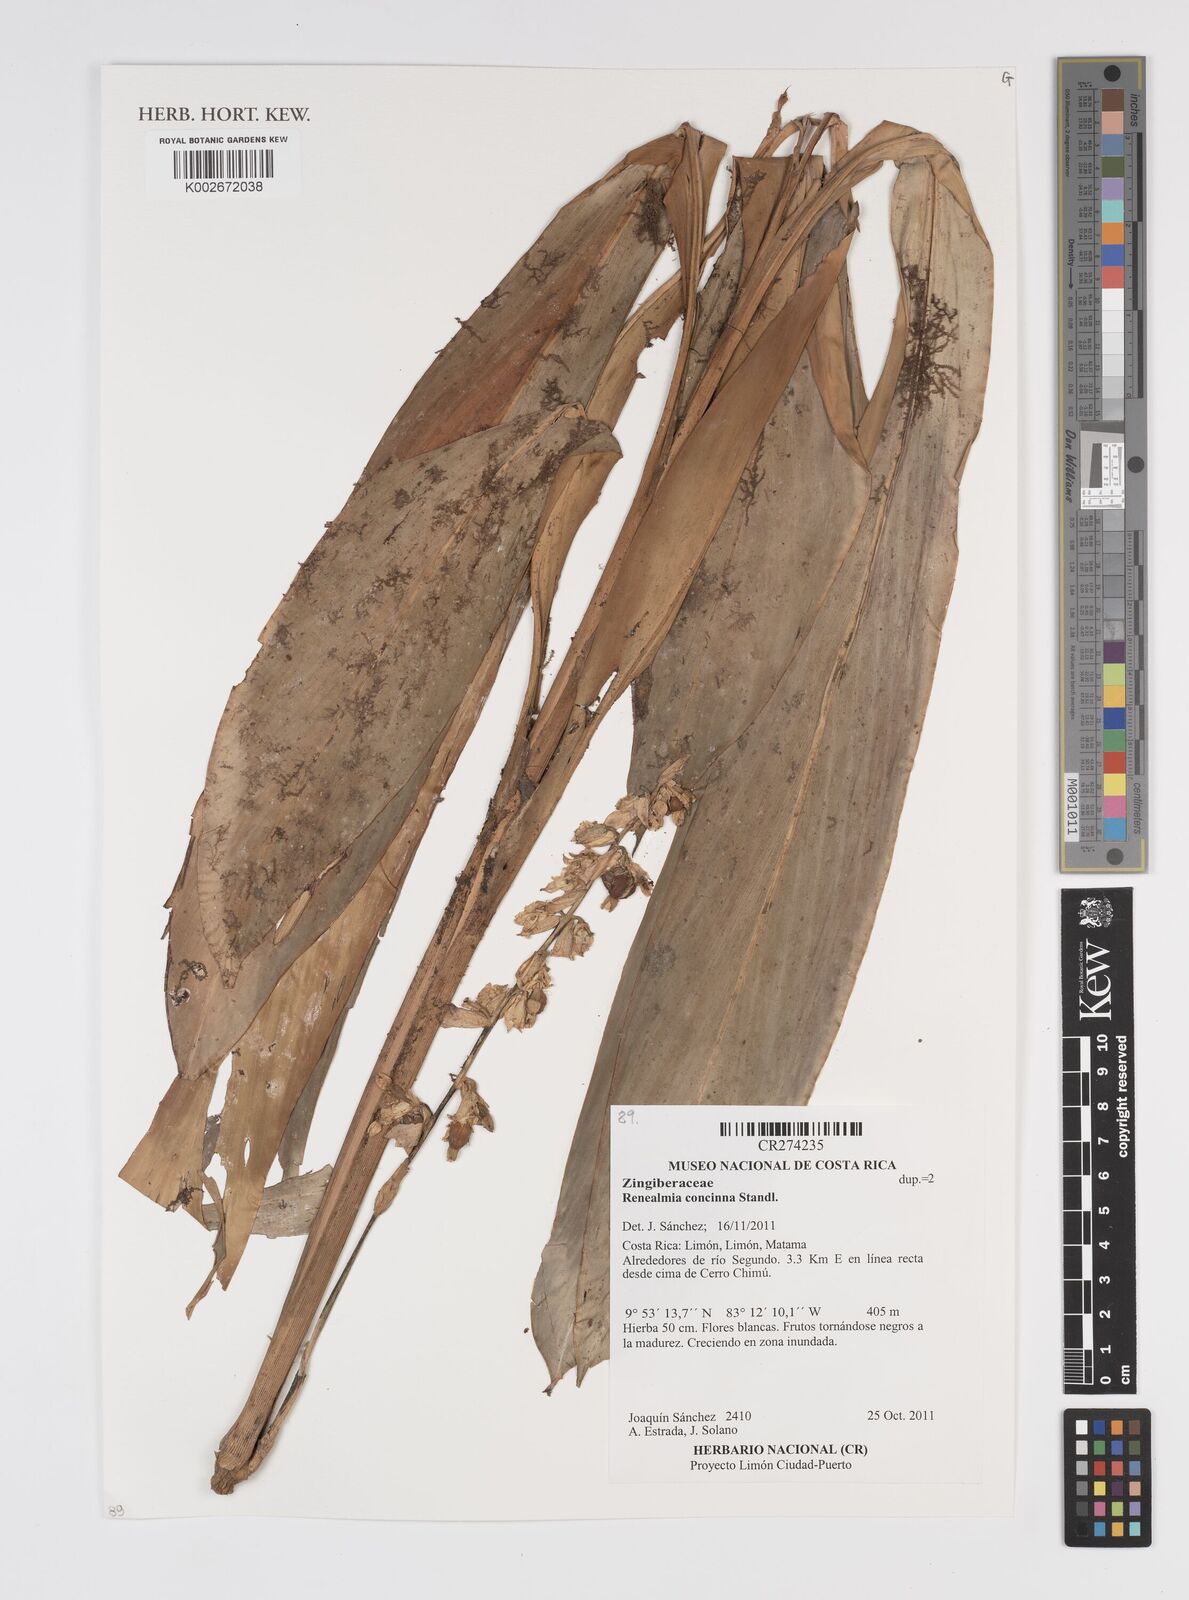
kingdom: Plantae
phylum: Tracheophyta
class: Liliopsida
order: Zingiberales
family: Zingiberaceae
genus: Renealmia
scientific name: Renealmia concinna
